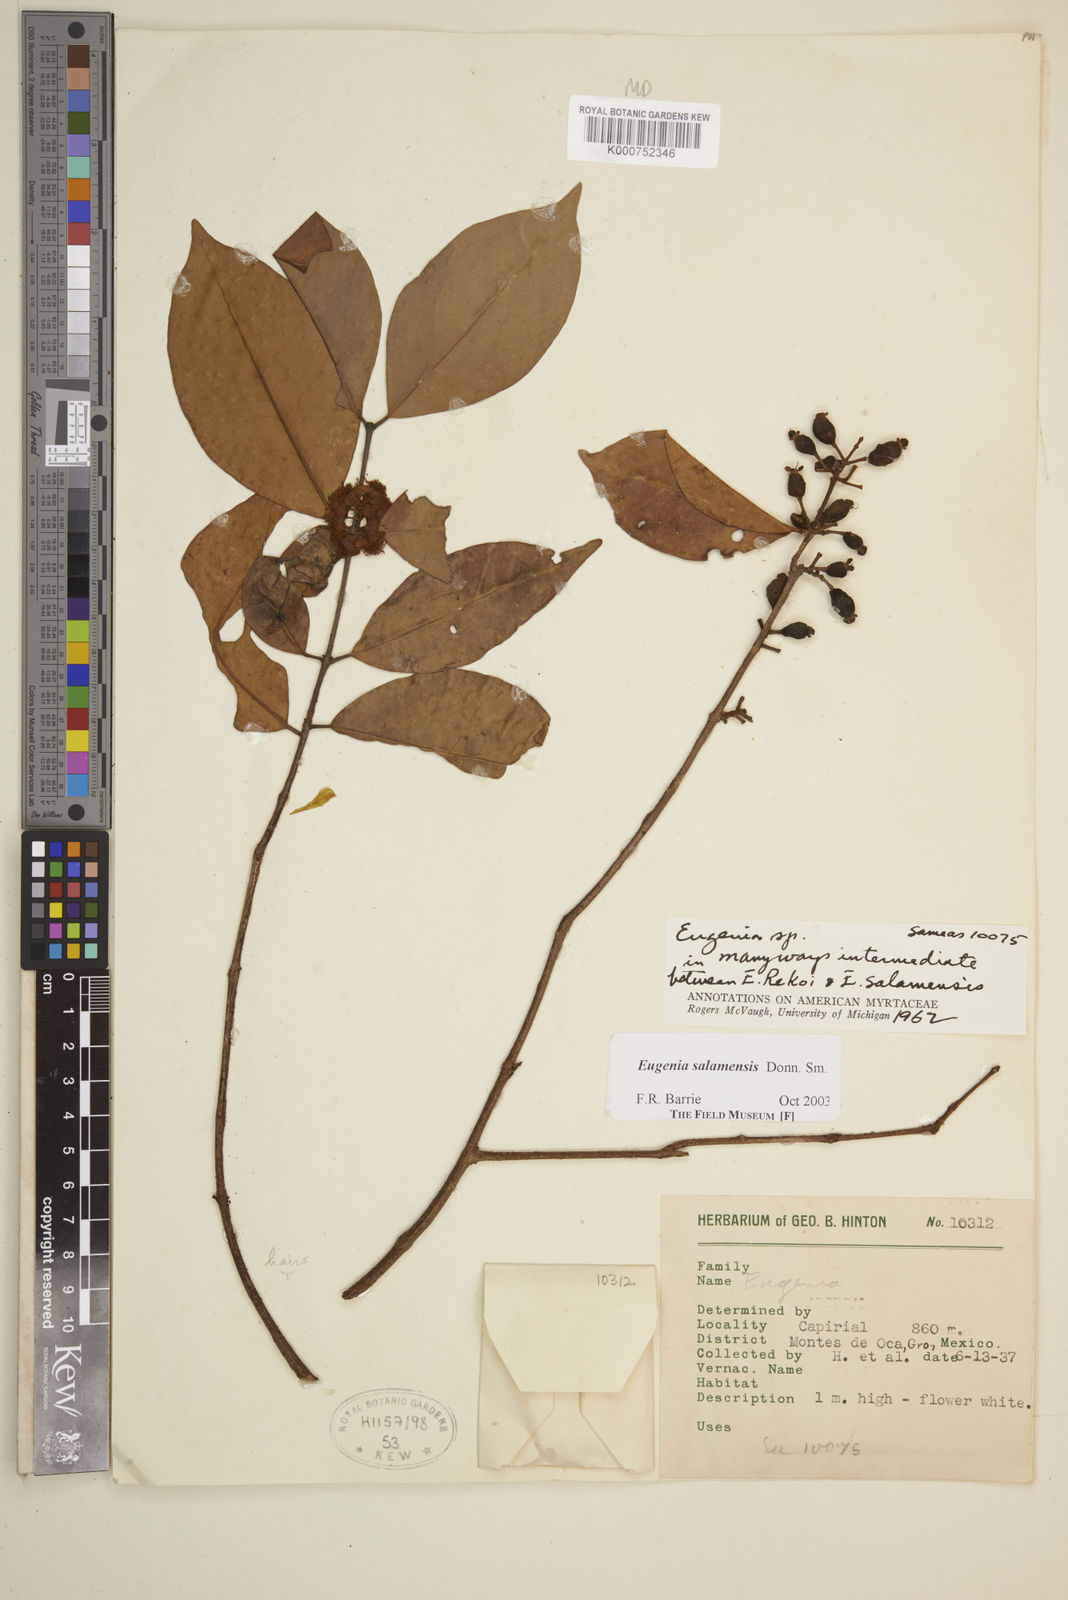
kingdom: Plantae
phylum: Tracheophyta
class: Magnoliopsida
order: Myrtales
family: Myrtaceae
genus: Eugenia
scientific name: Eugenia salamensis
